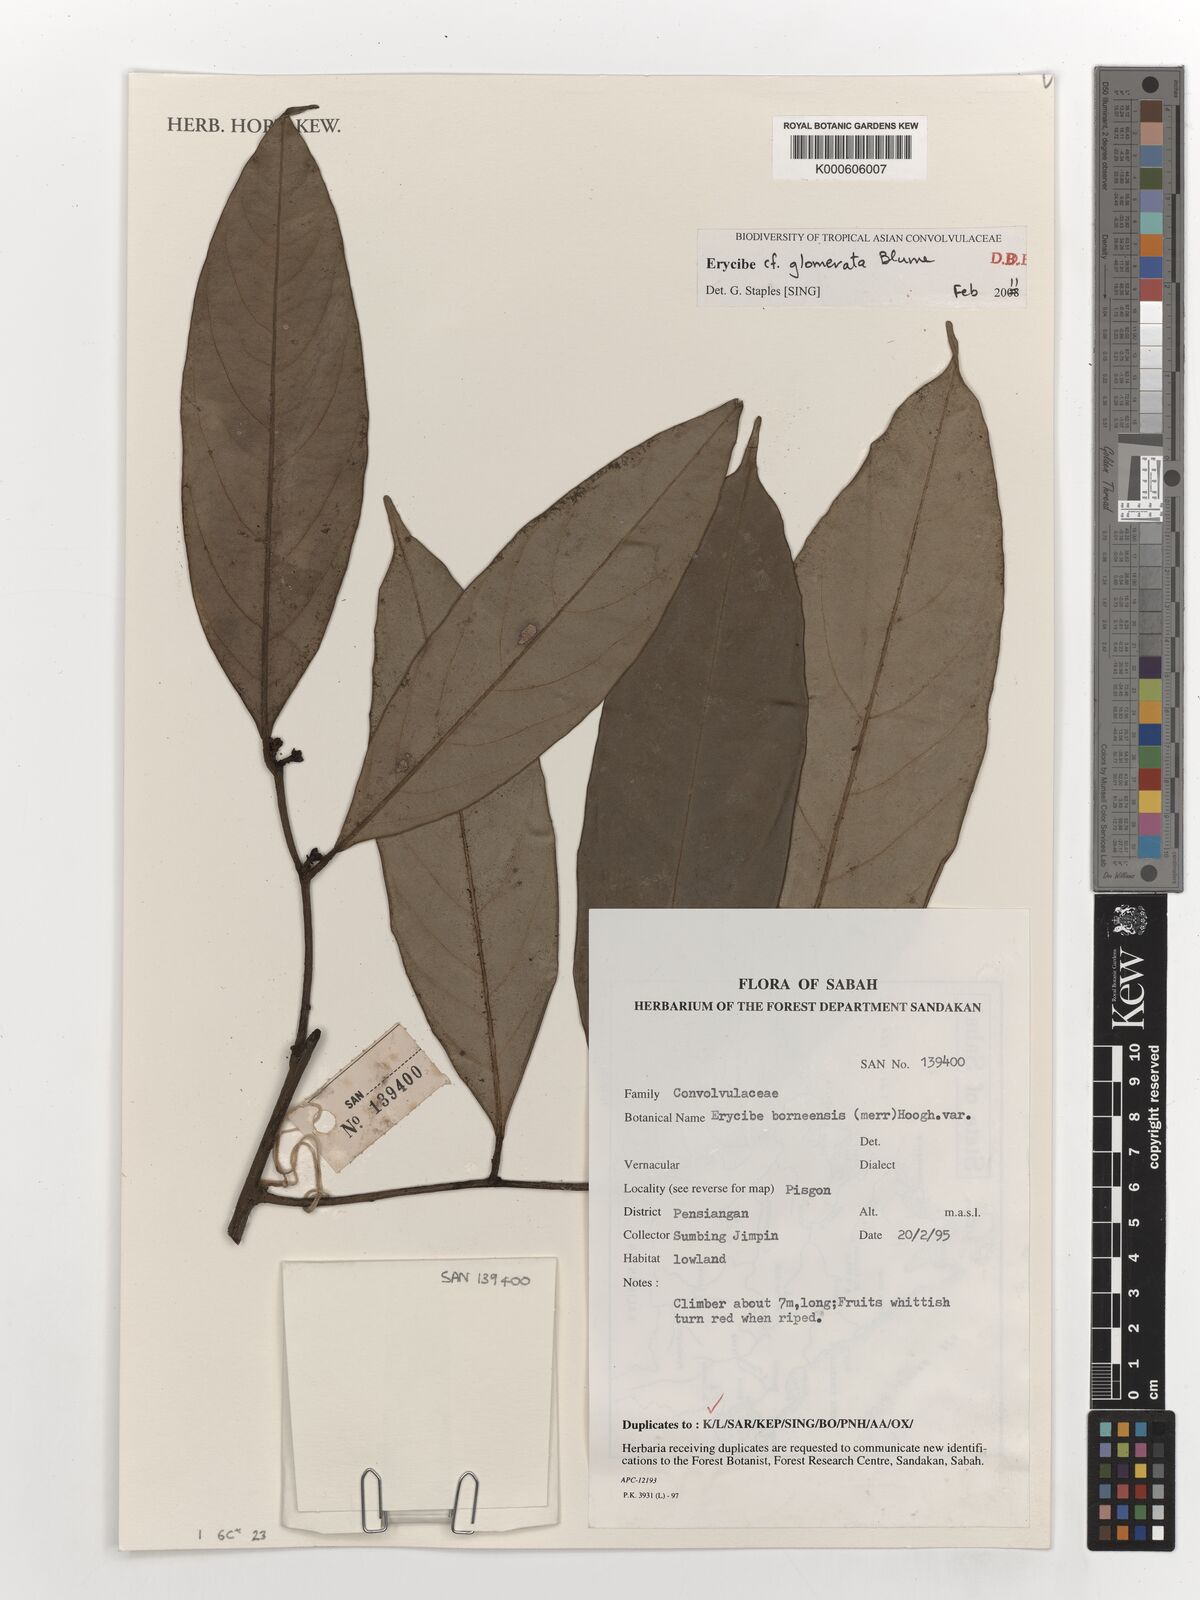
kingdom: Plantae
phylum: Tracheophyta
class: Magnoliopsida
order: Solanales
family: Convolvulaceae
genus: Erycibe
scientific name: Erycibe glomerata
